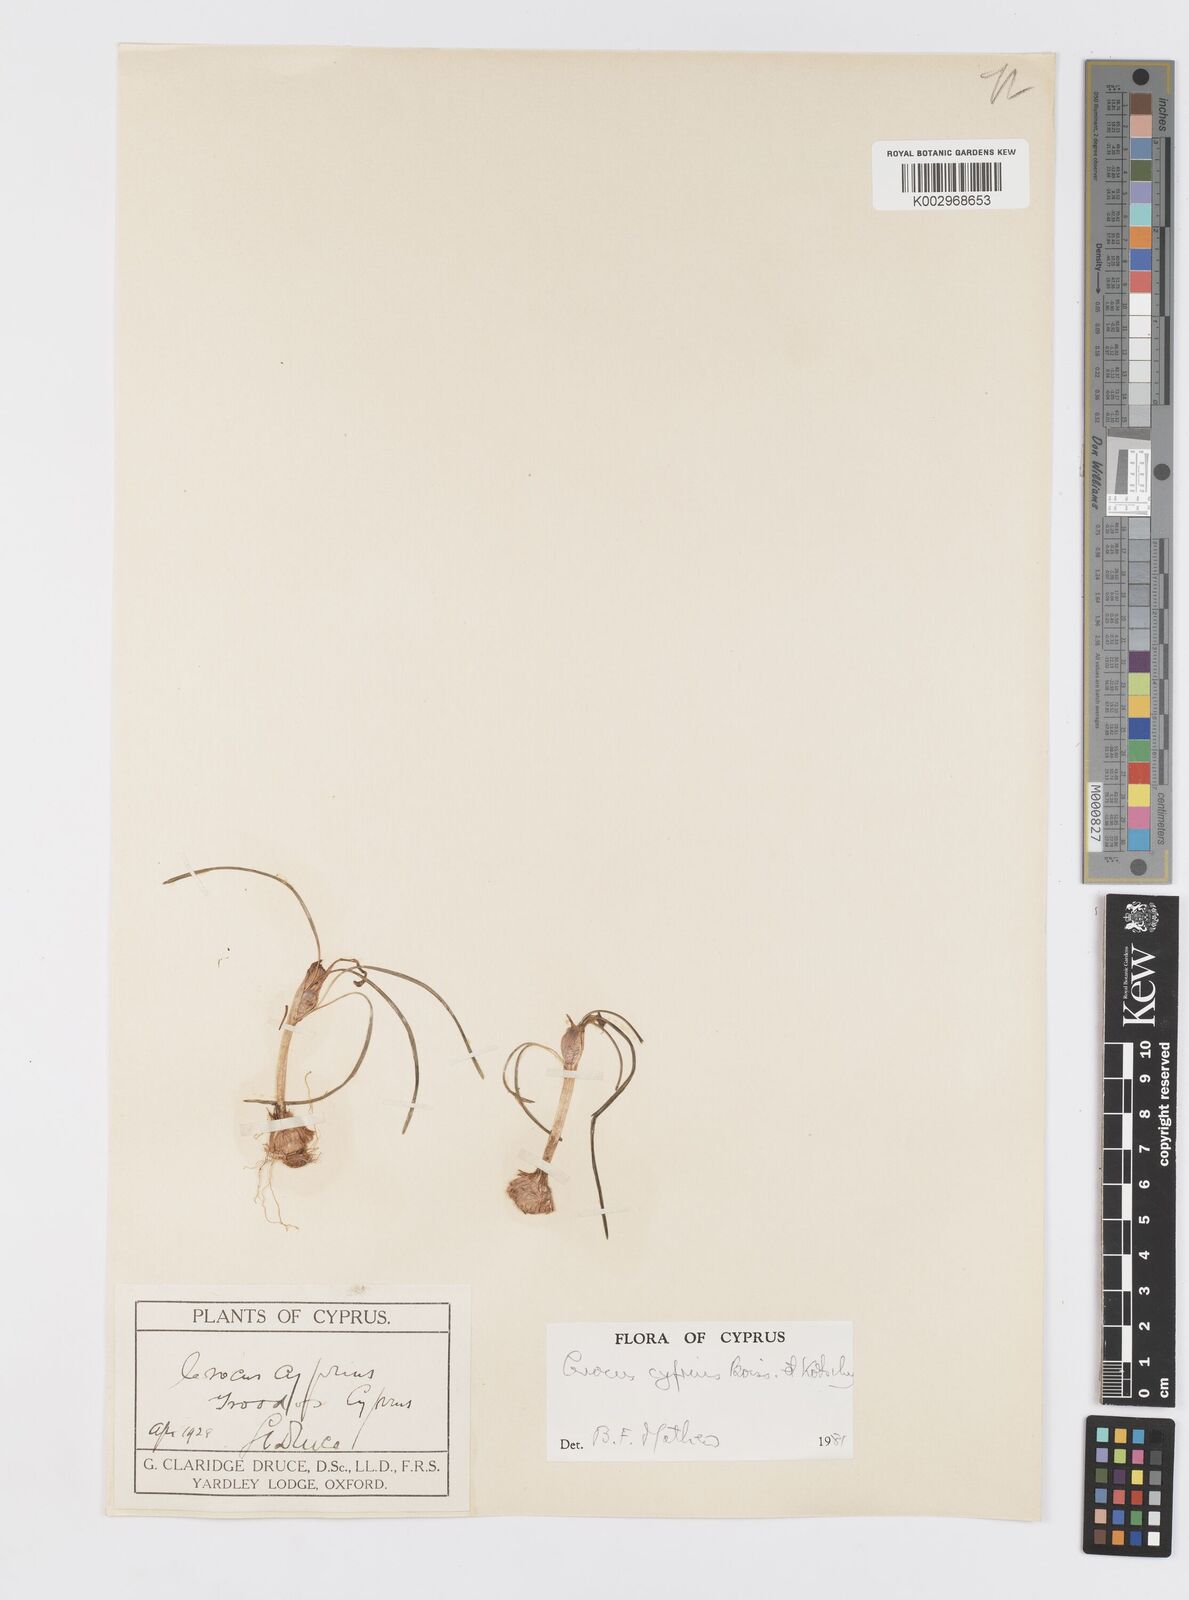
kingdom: Plantae
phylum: Tracheophyta
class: Liliopsida
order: Asparagales
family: Iridaceae
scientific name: Iridaceae
